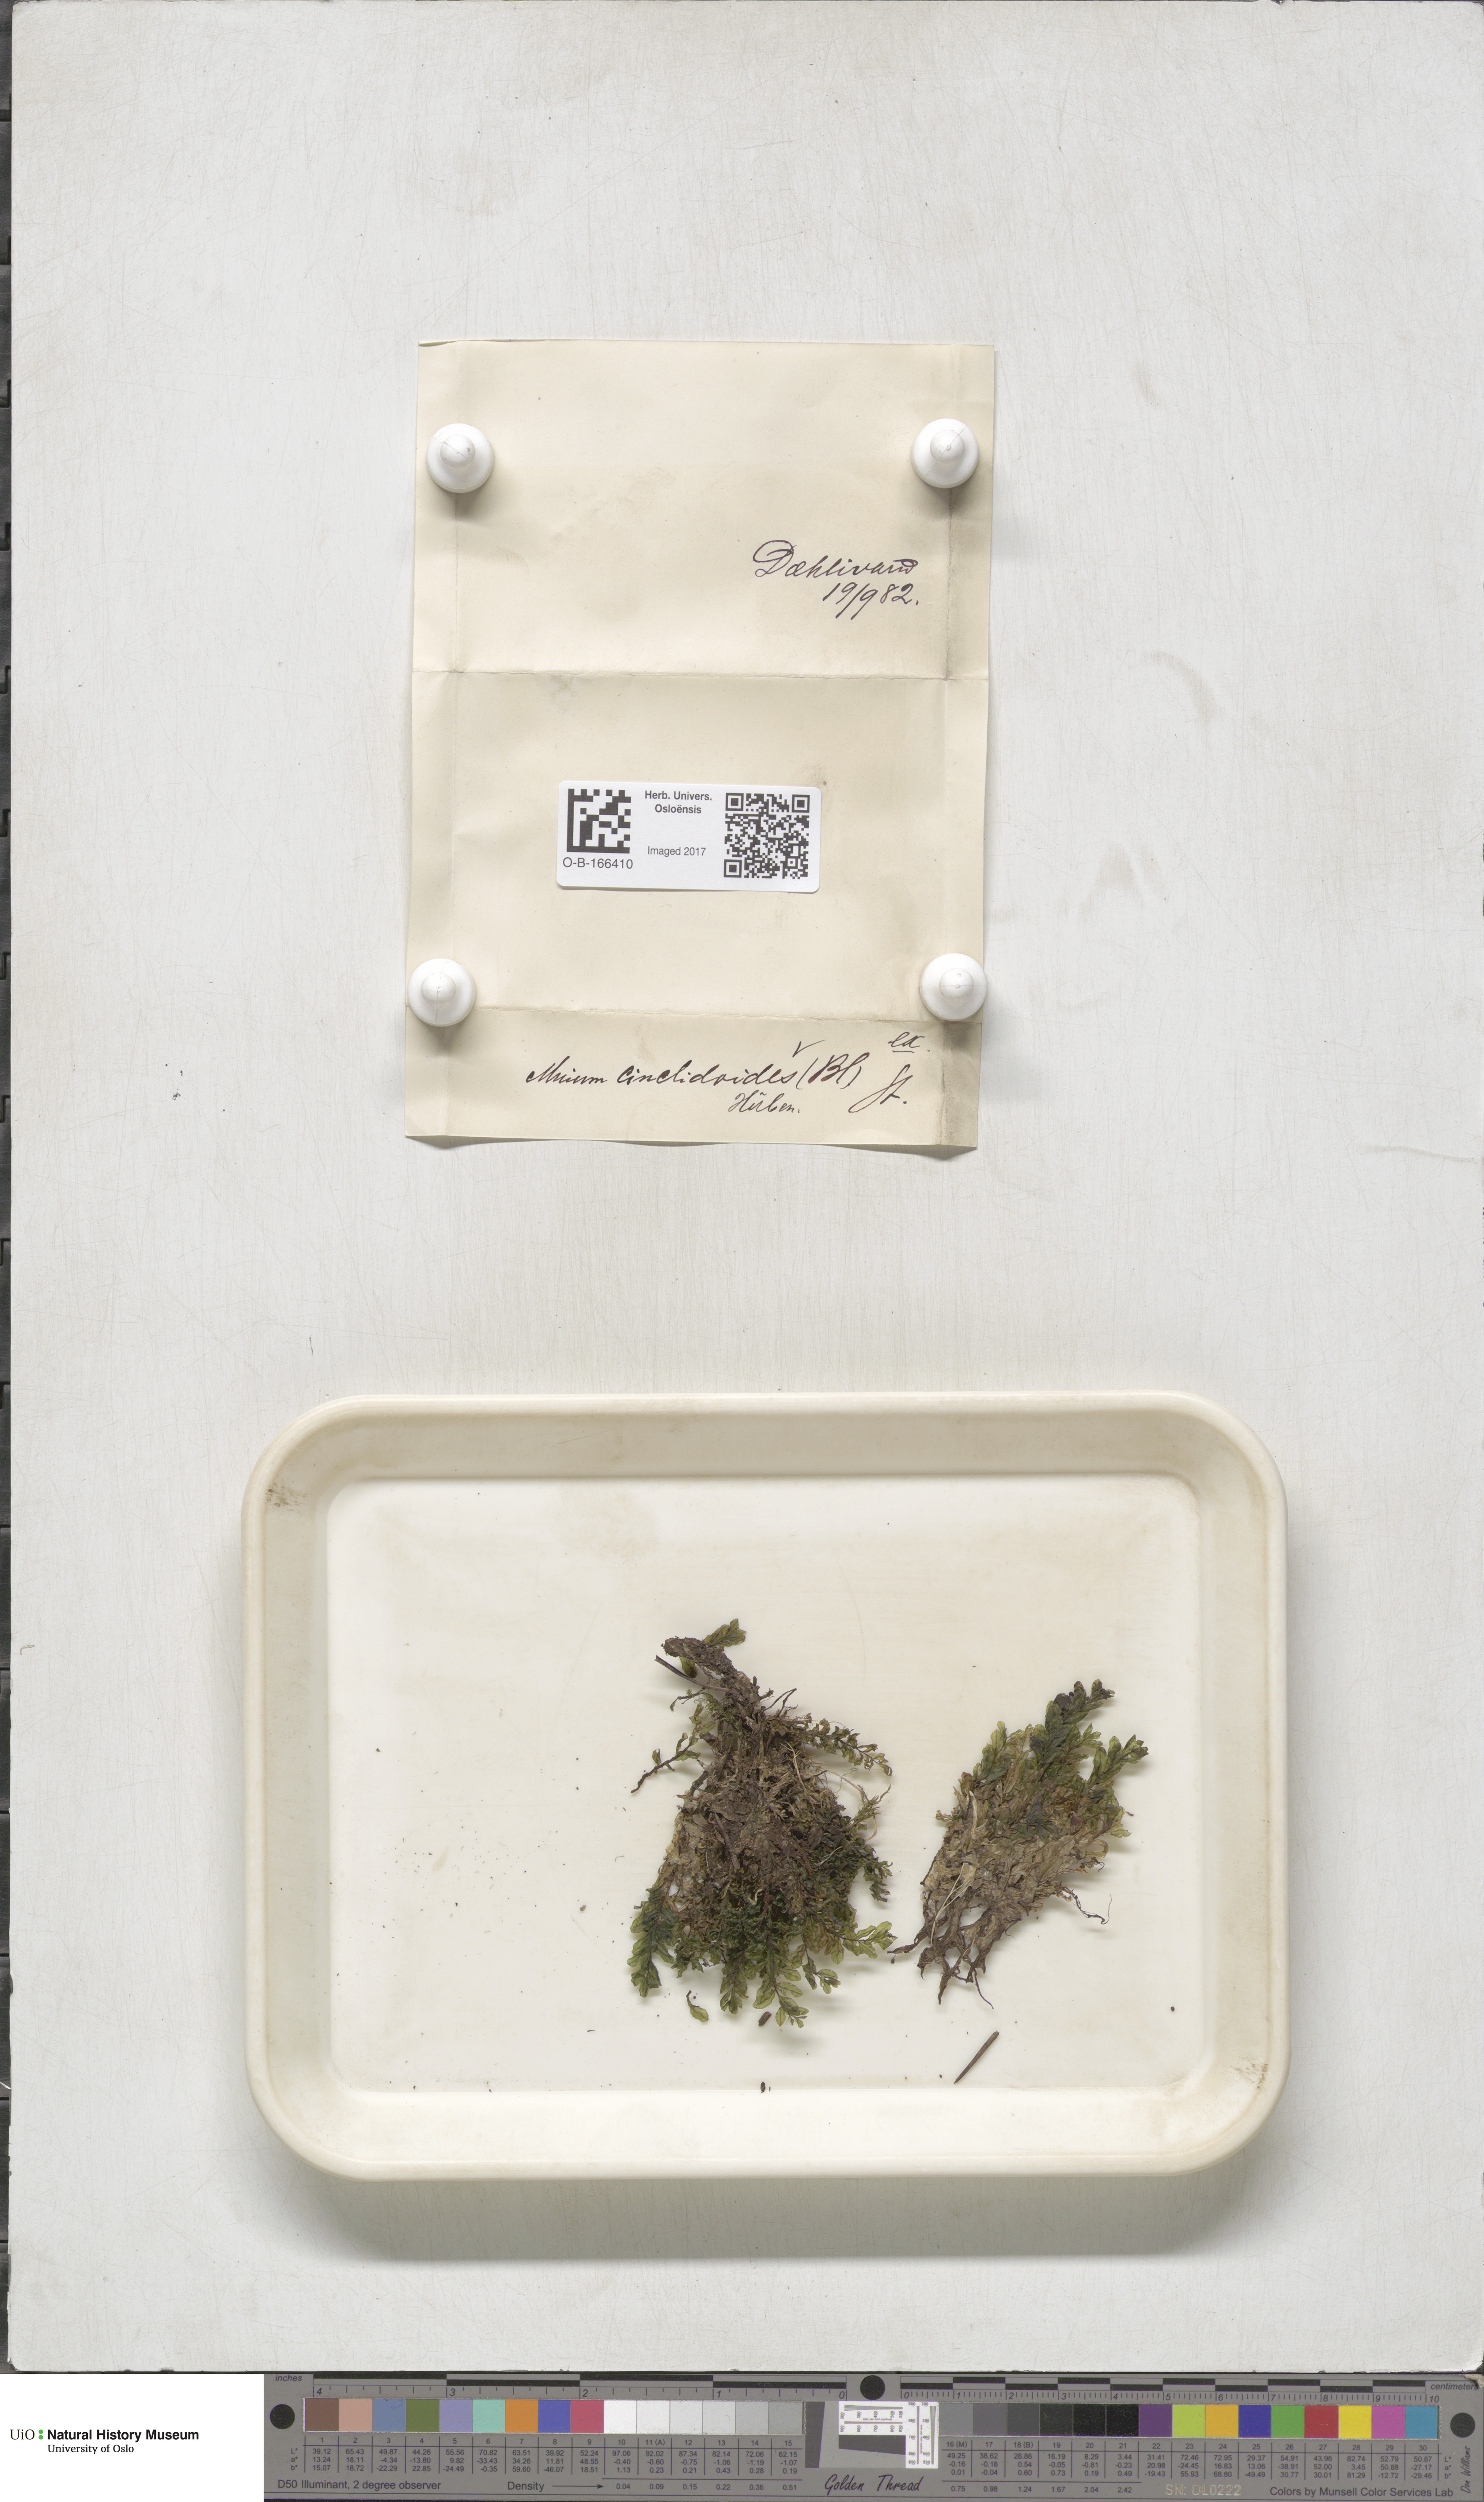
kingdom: Plantae
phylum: Bryophyta
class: Bryopsida
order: Bryales
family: Mniaceae
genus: Pseudobryum
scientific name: Pseudobryum cinclidioides
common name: River thyme moss
